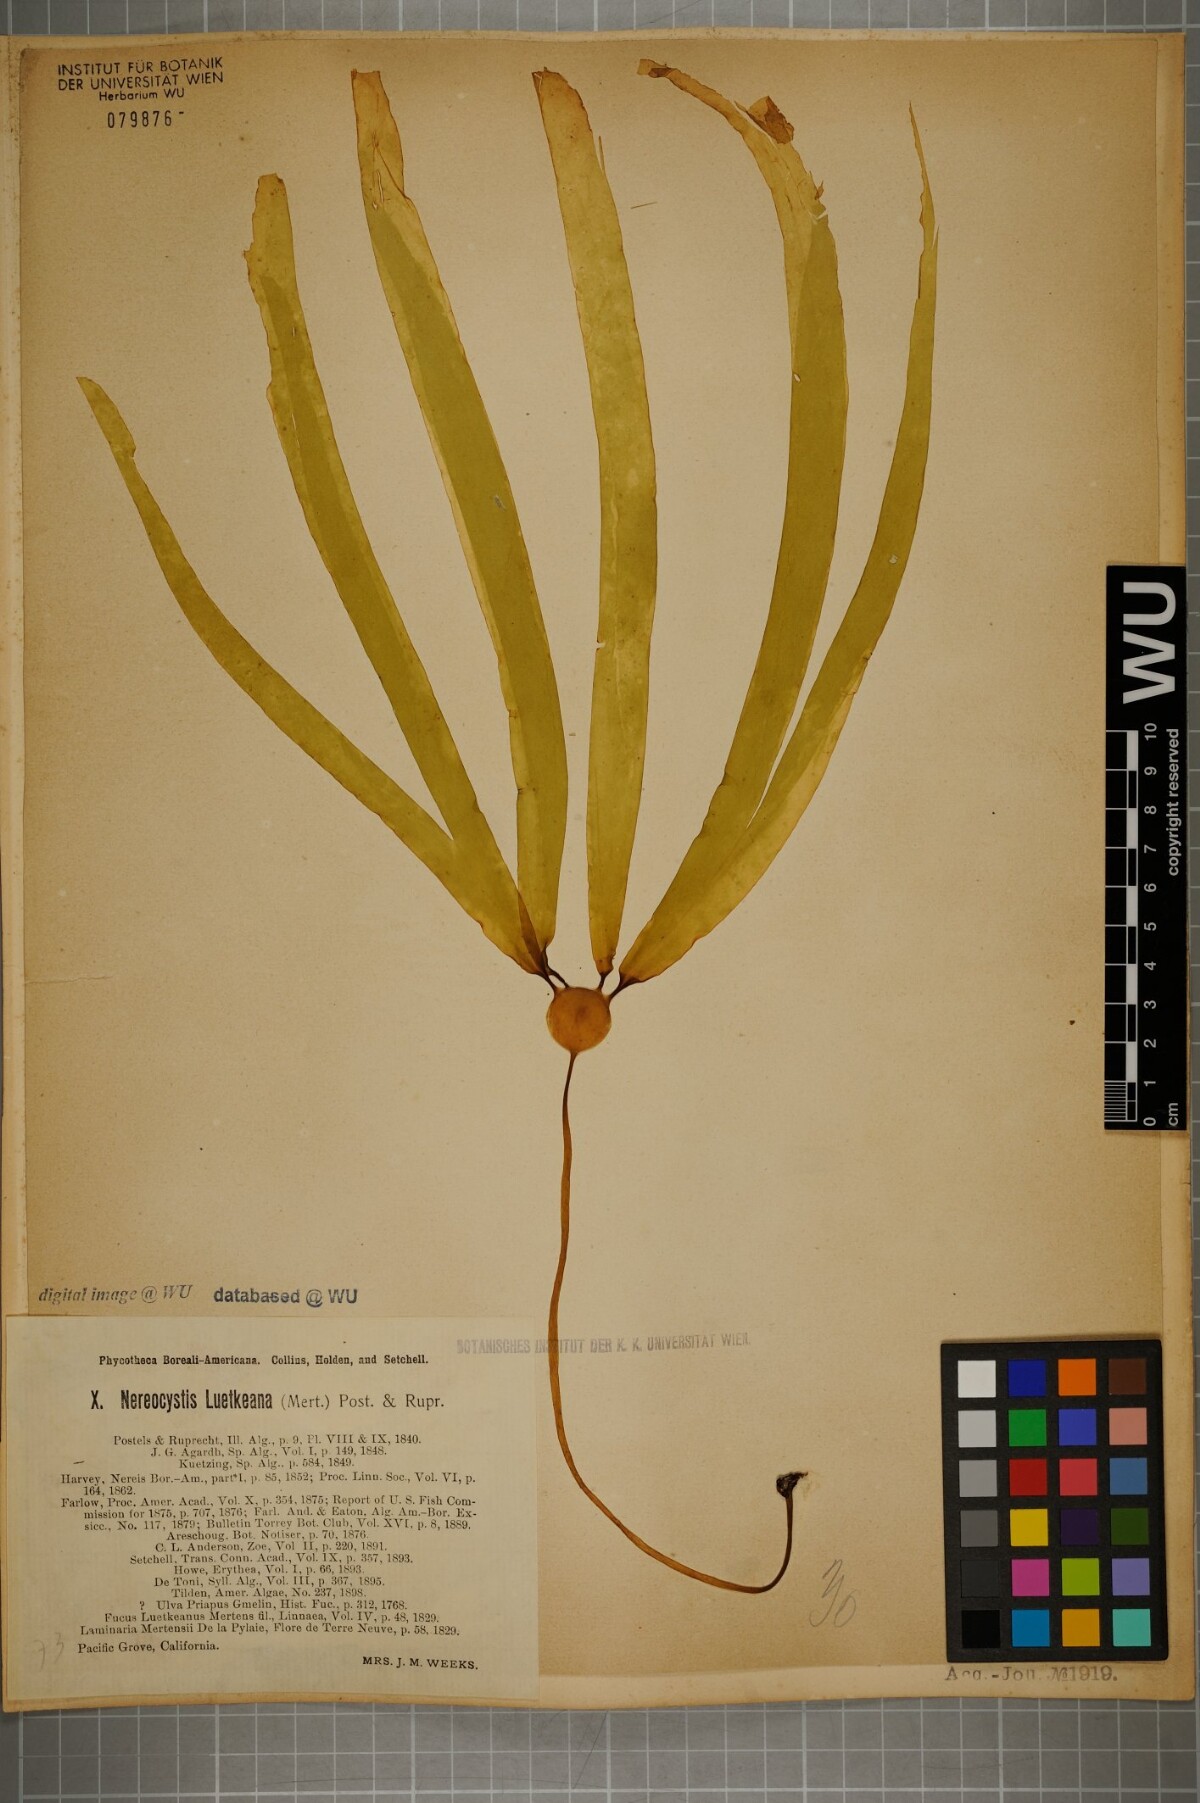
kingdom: Chromista
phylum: Ochrophyta
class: Phaeophyceae
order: Laminariales
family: Laminariaceae
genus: Nereocystis
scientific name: Nereocystis luetkeana
